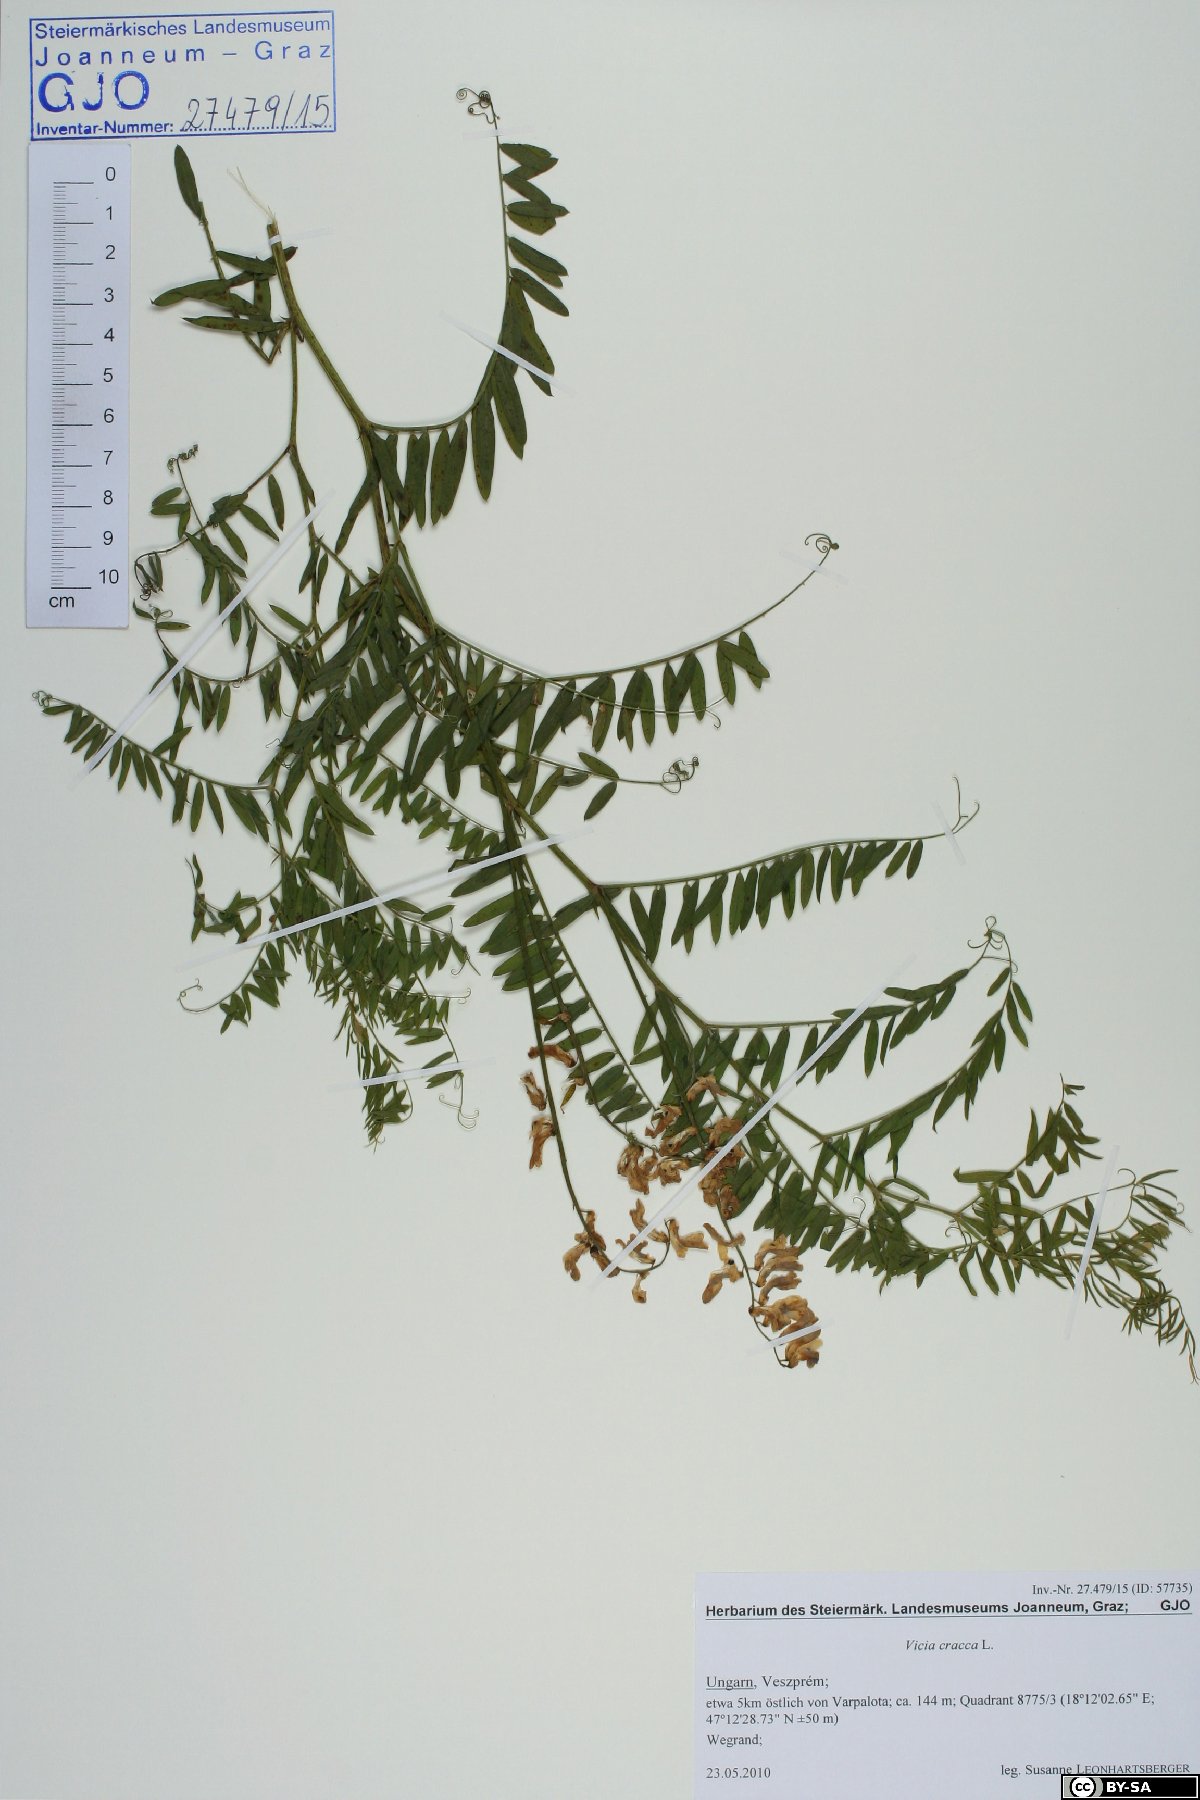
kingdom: Plantae
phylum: Tracheophyta
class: Magnoliopsida
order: Fabales
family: Fabaceae
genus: Vicia
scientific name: Vicia cracca
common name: Bird vetch
